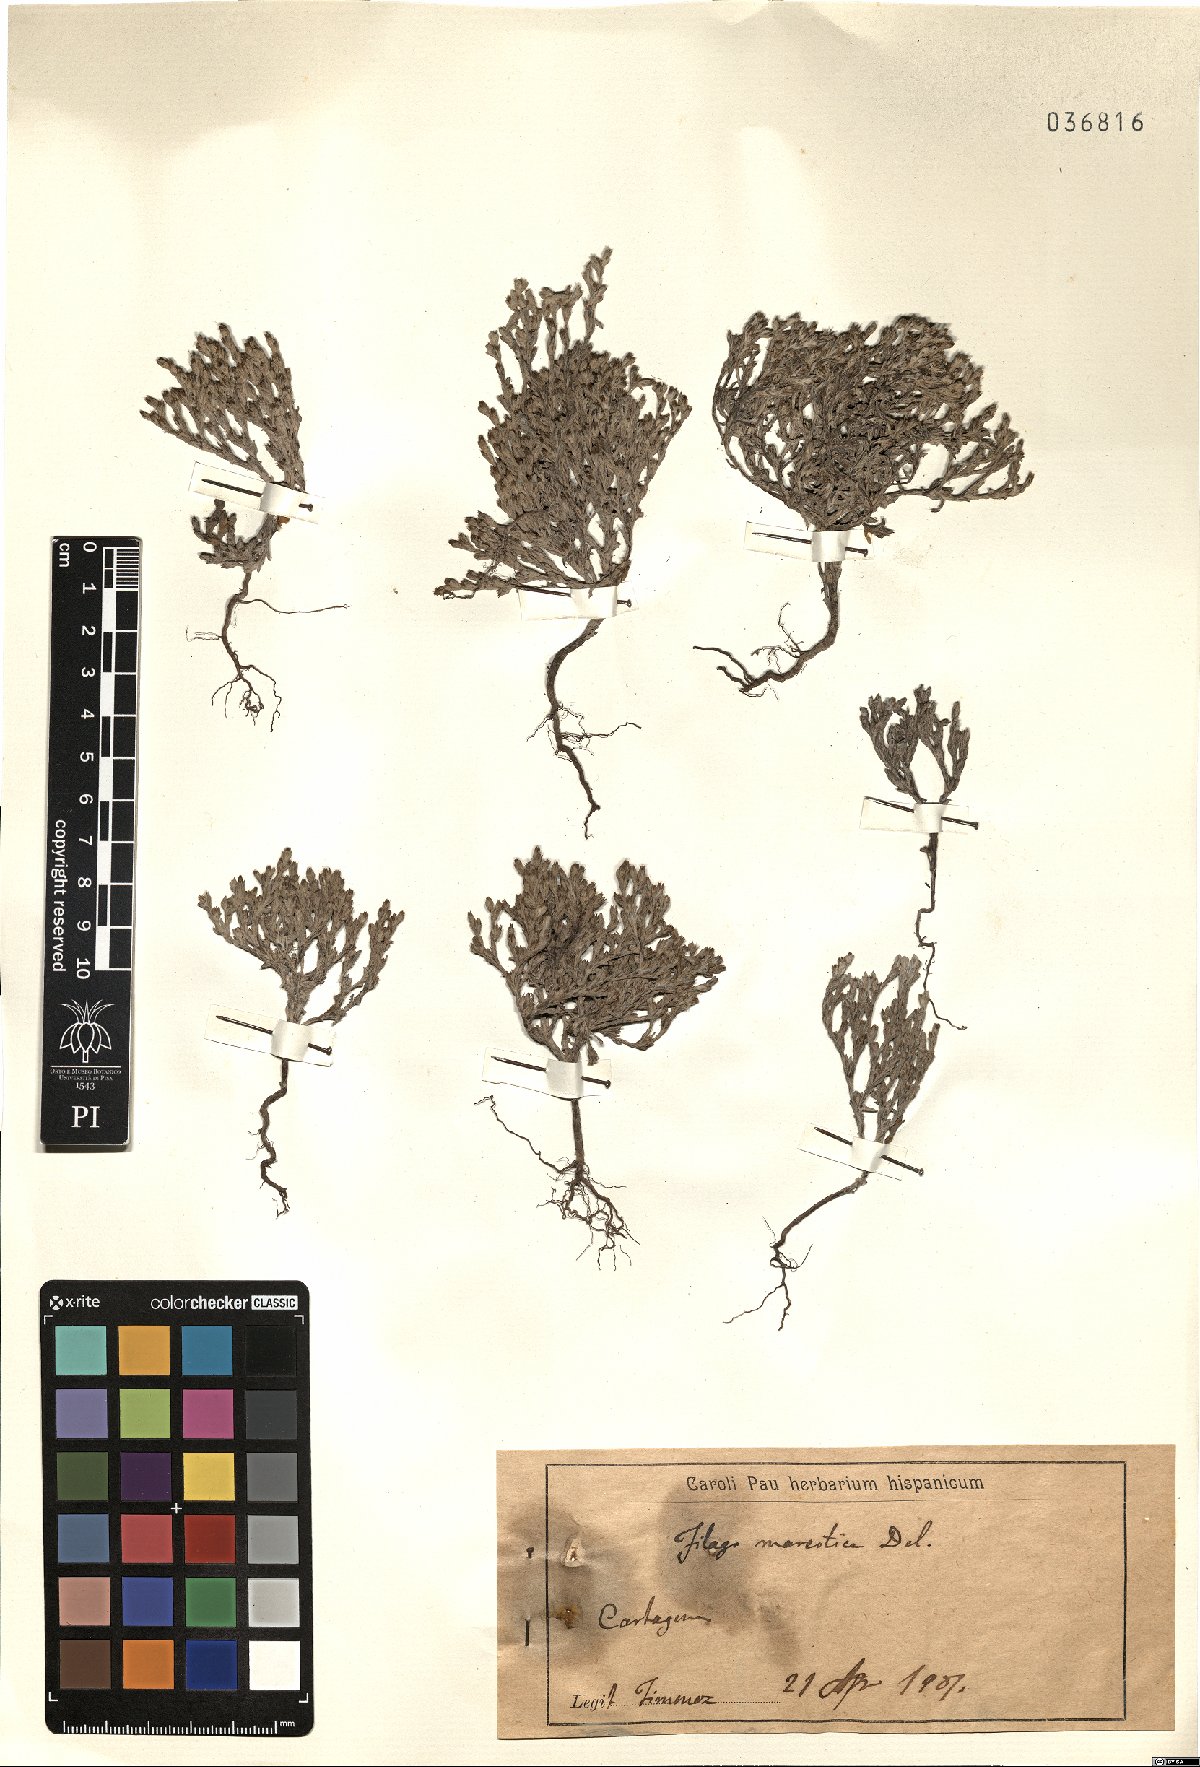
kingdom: Plantae
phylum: Tracheophyta
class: Magnoliopsida
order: Asterales
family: Asteraceae
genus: Filago
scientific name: Filago mareotica
